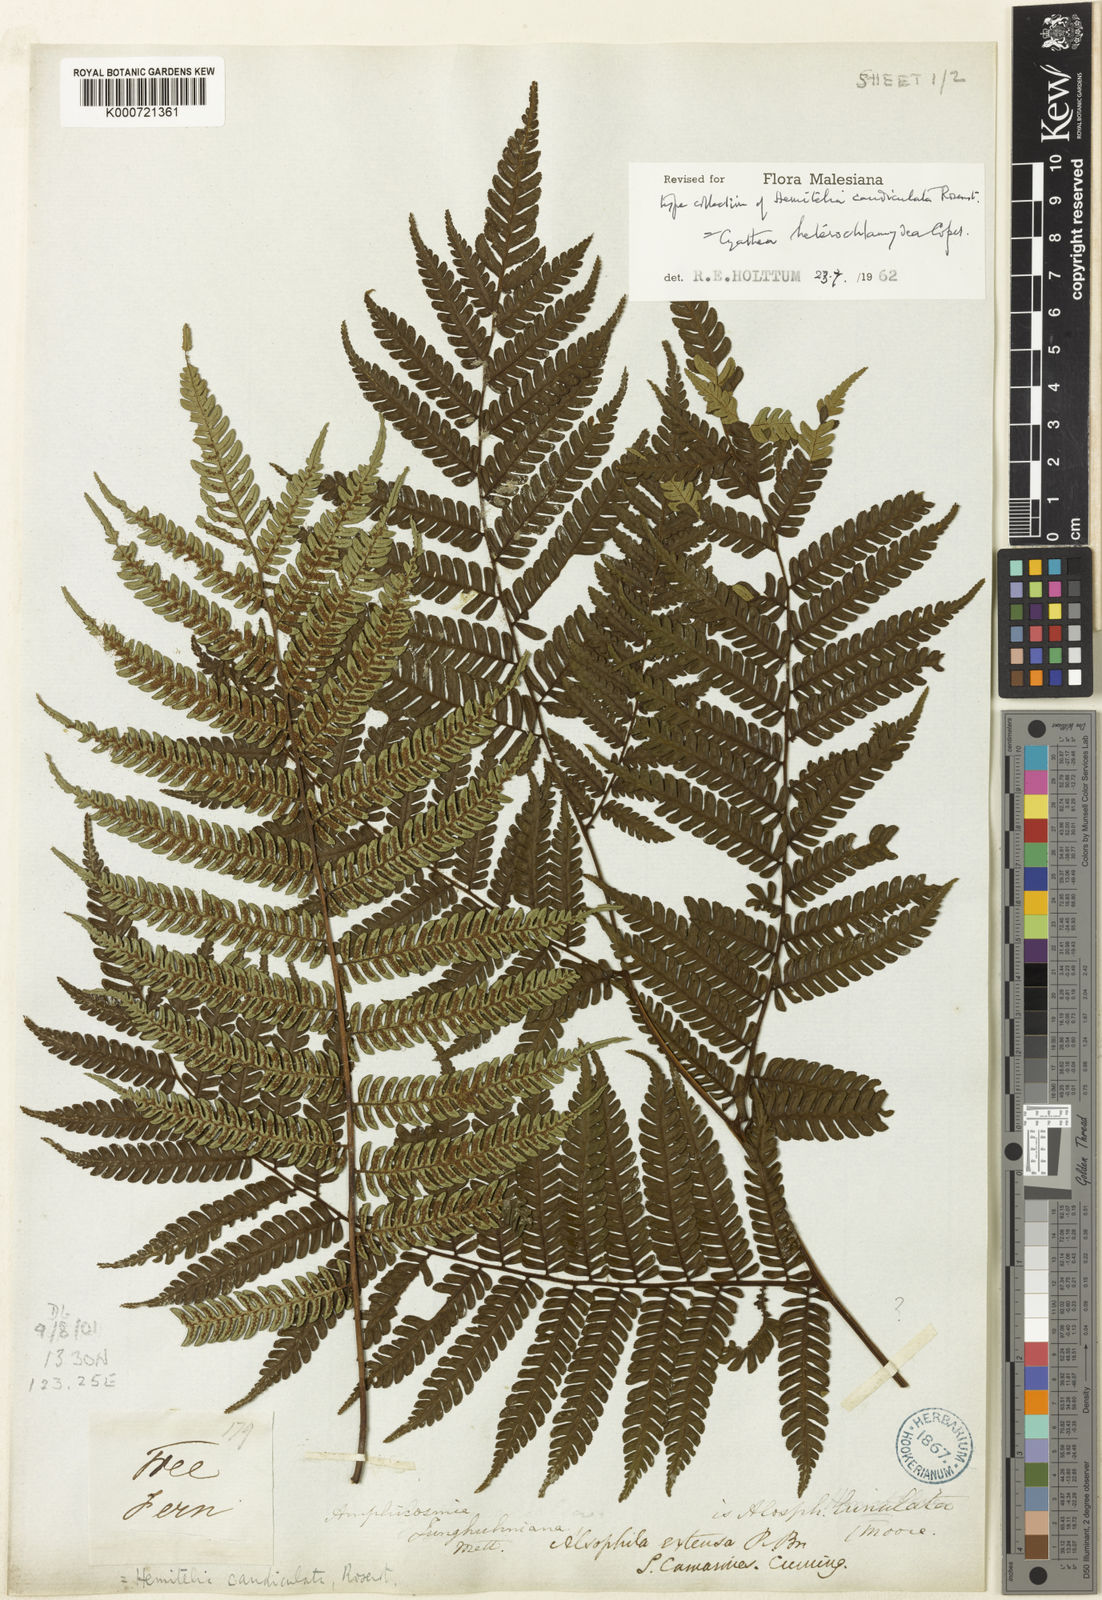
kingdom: Plantae
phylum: Tracheophyta
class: Polypodiopsida
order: Cyatheales
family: Cyatheaceae
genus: Alsophila
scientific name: Alsophila heterochlamydea
